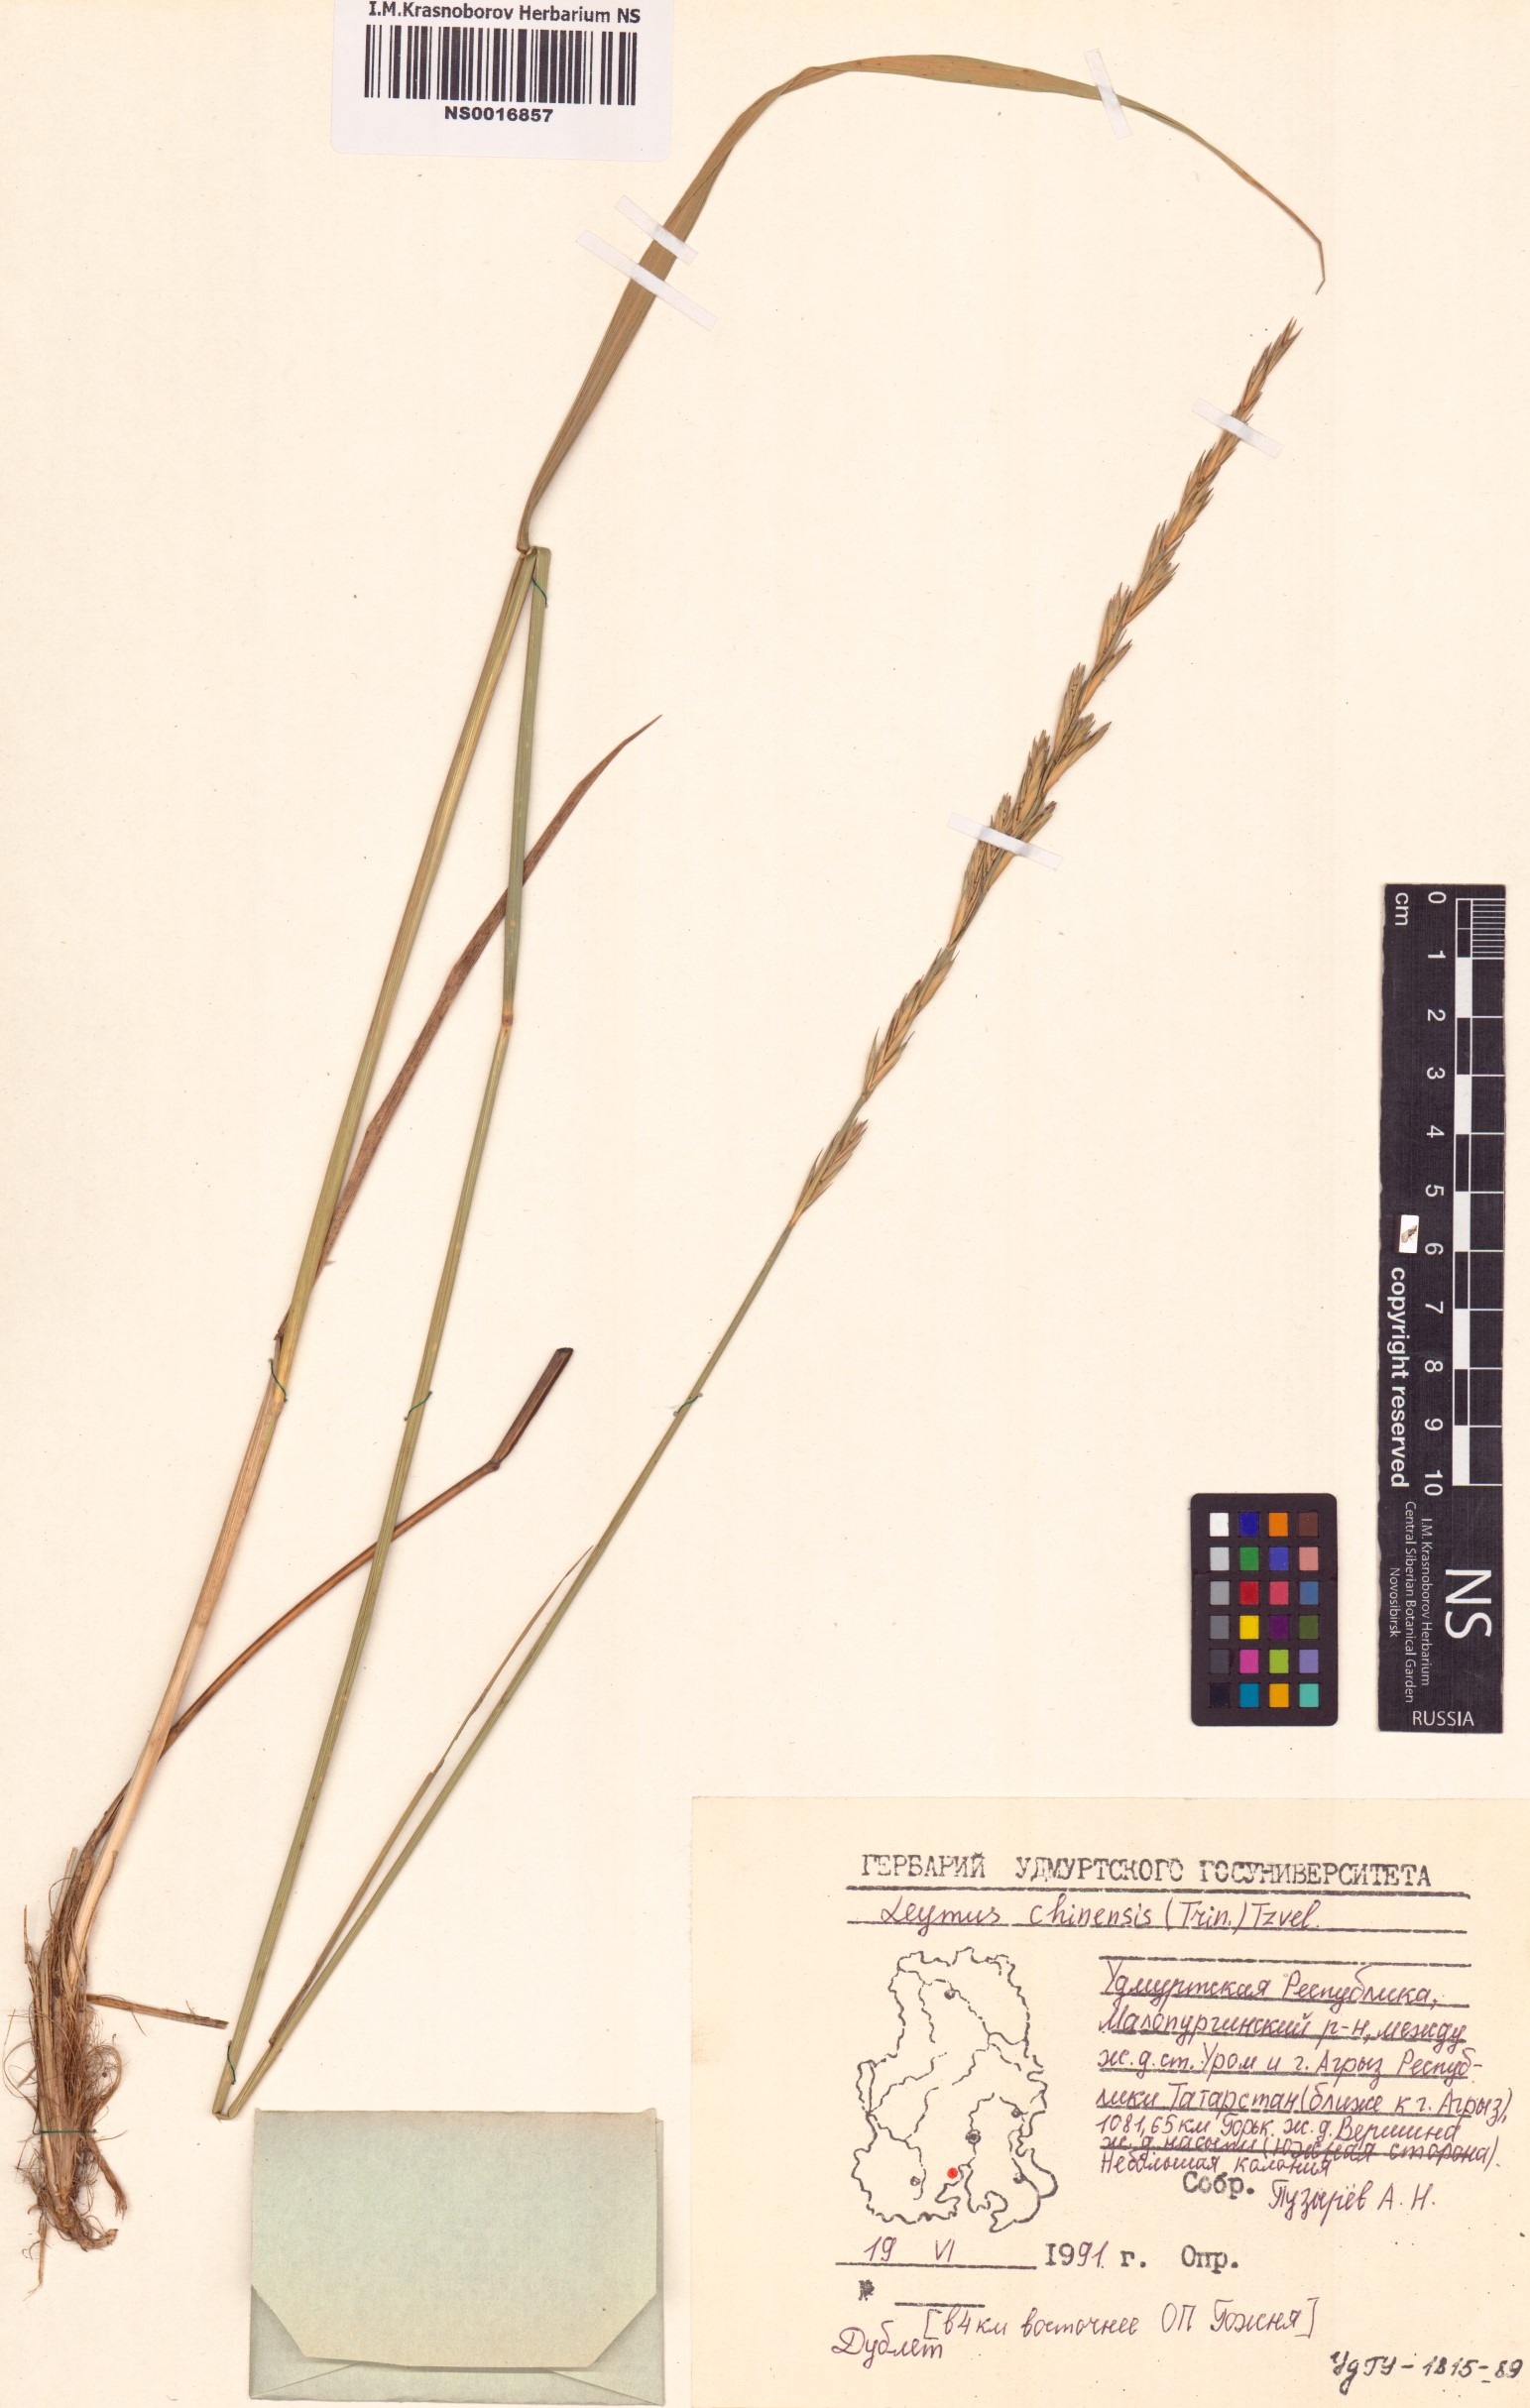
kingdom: Plantae
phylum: Tracheophyta
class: Liliopsida
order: Poales
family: Poaceae
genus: Leymus
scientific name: Leymus chinensis
